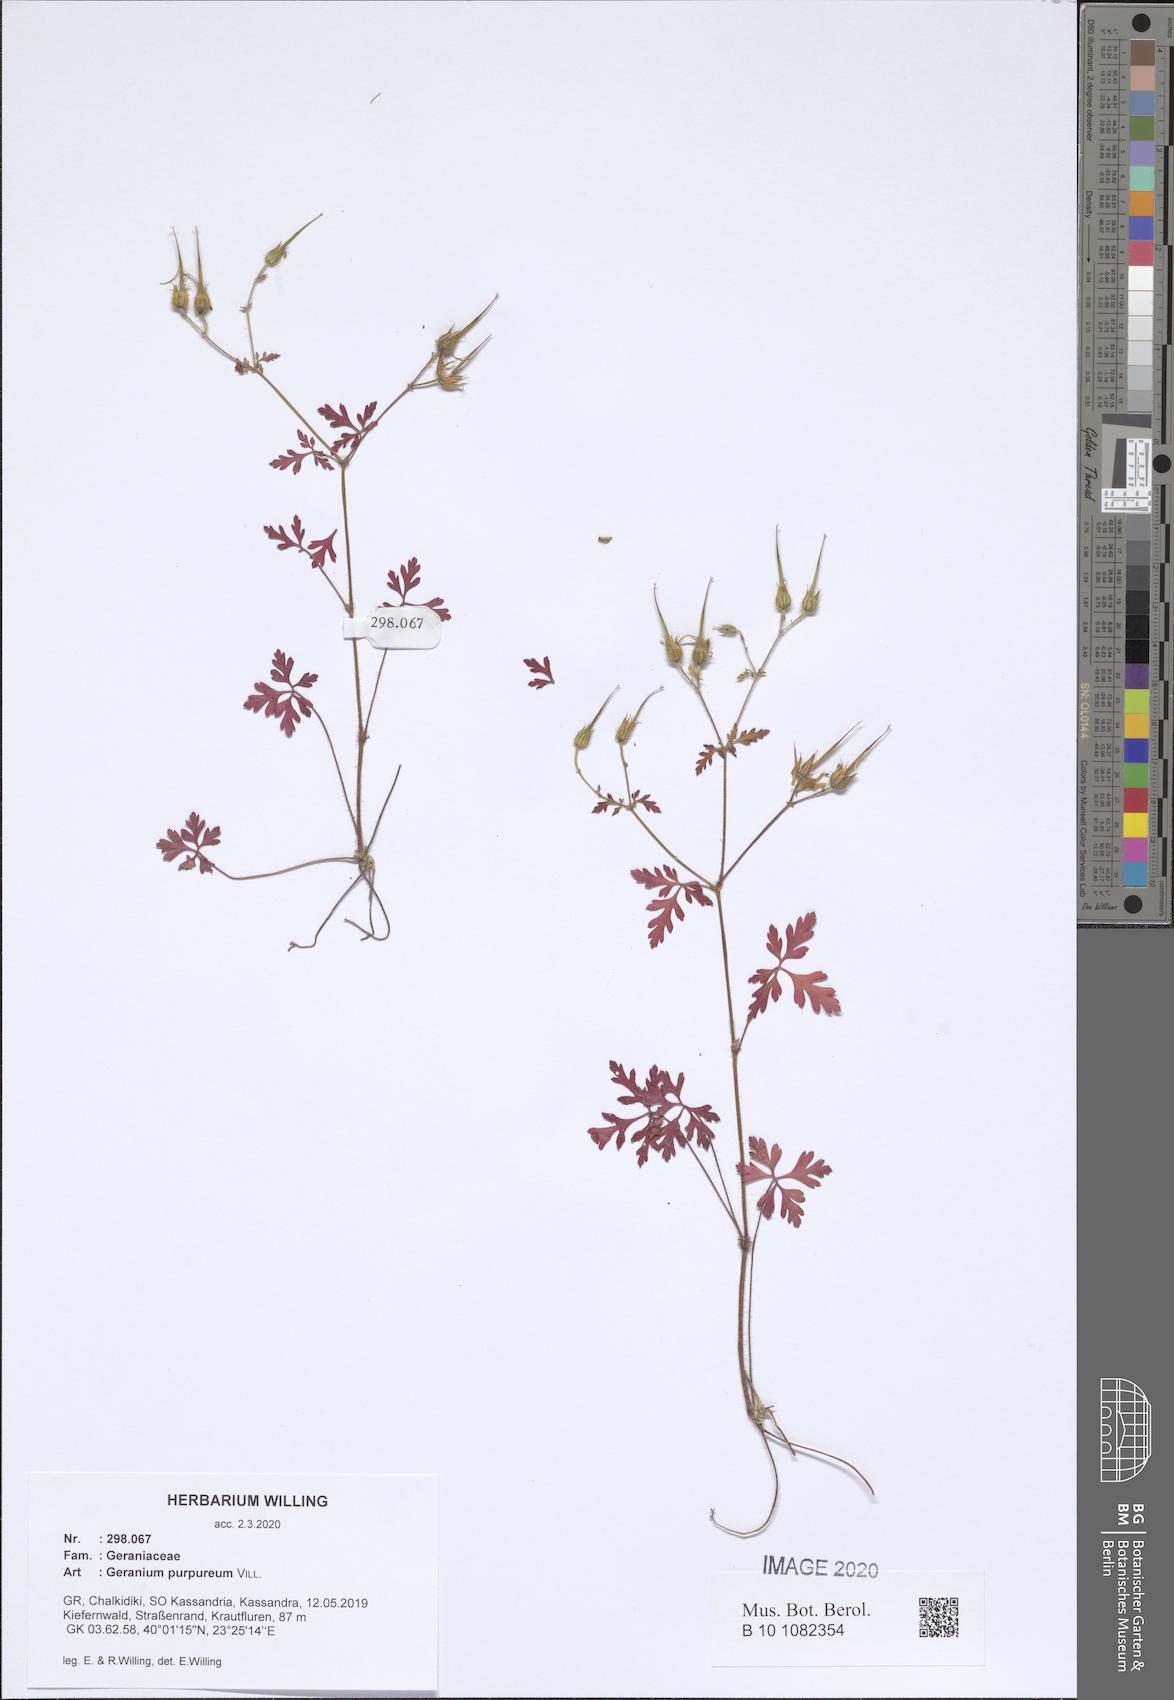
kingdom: Plantae
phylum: Tracheophyta
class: Magnoliopsida
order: Geraniales
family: Geraniaceae
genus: Geranium
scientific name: Geranium purpureum
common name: Little-robin
